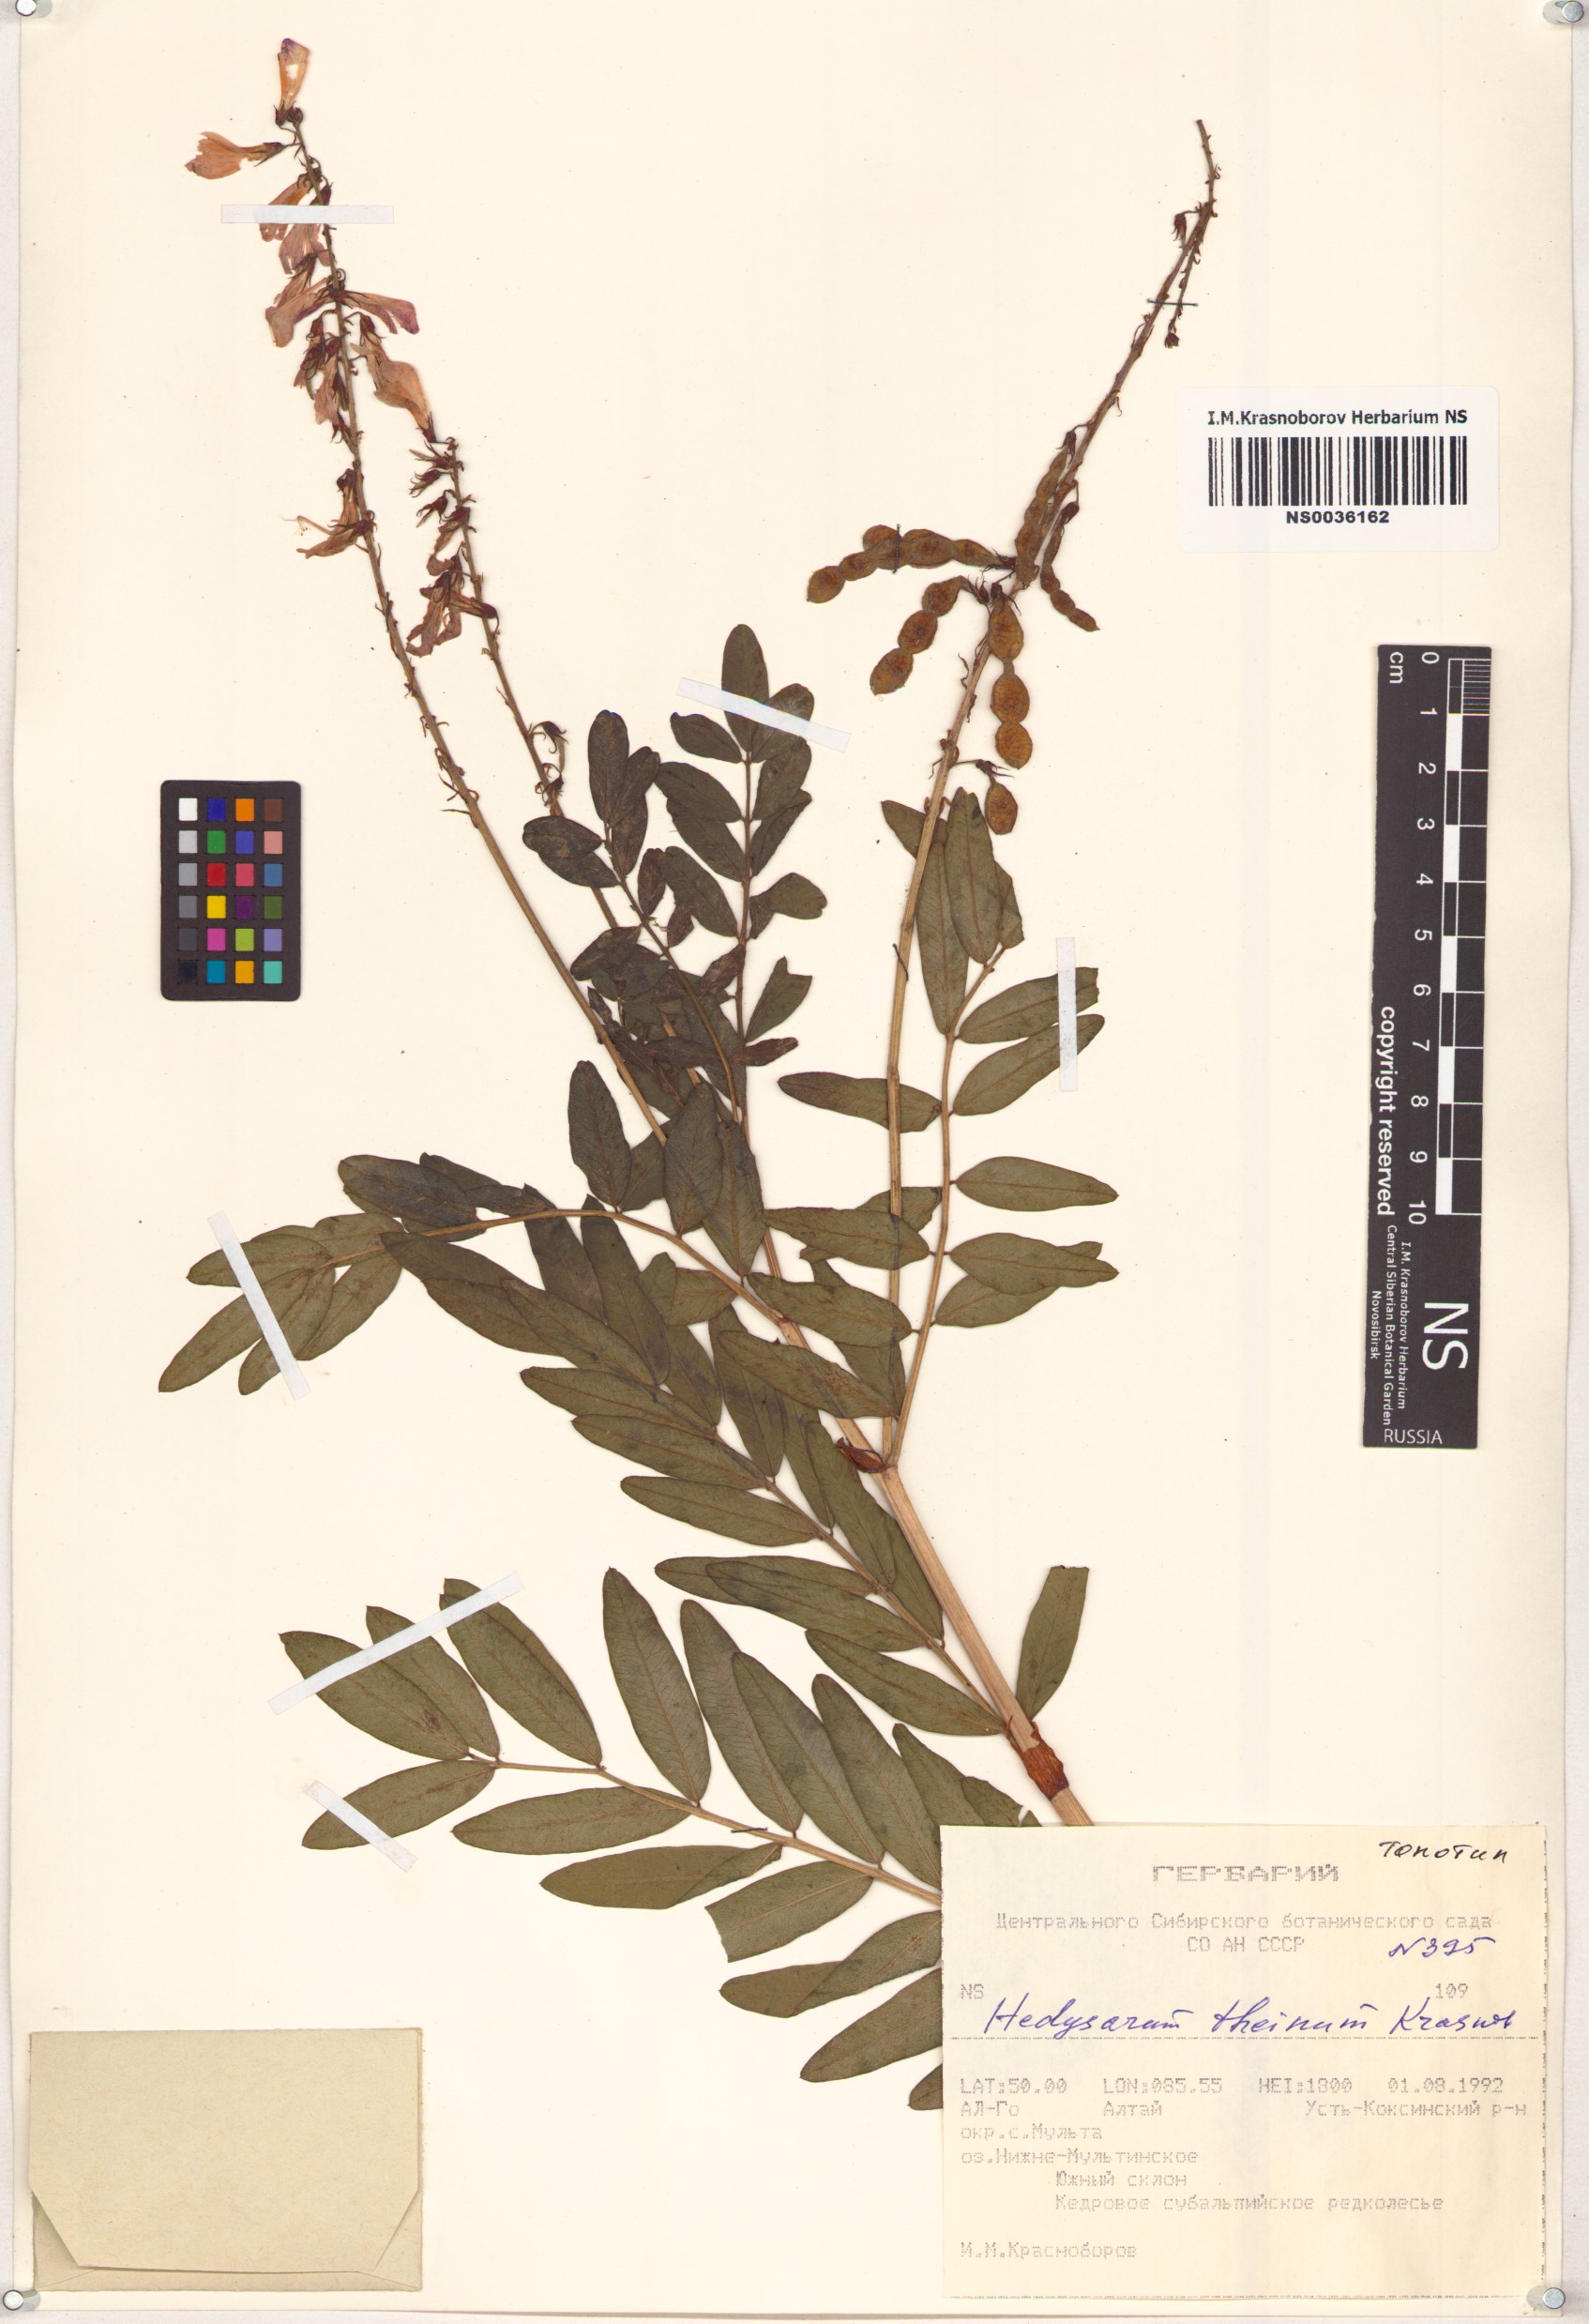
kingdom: Plantae
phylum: Tracheophyta
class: Magnoliopsida
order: Fabales
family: Fabaceae
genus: Hedysarum
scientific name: Hedysarum theinum
